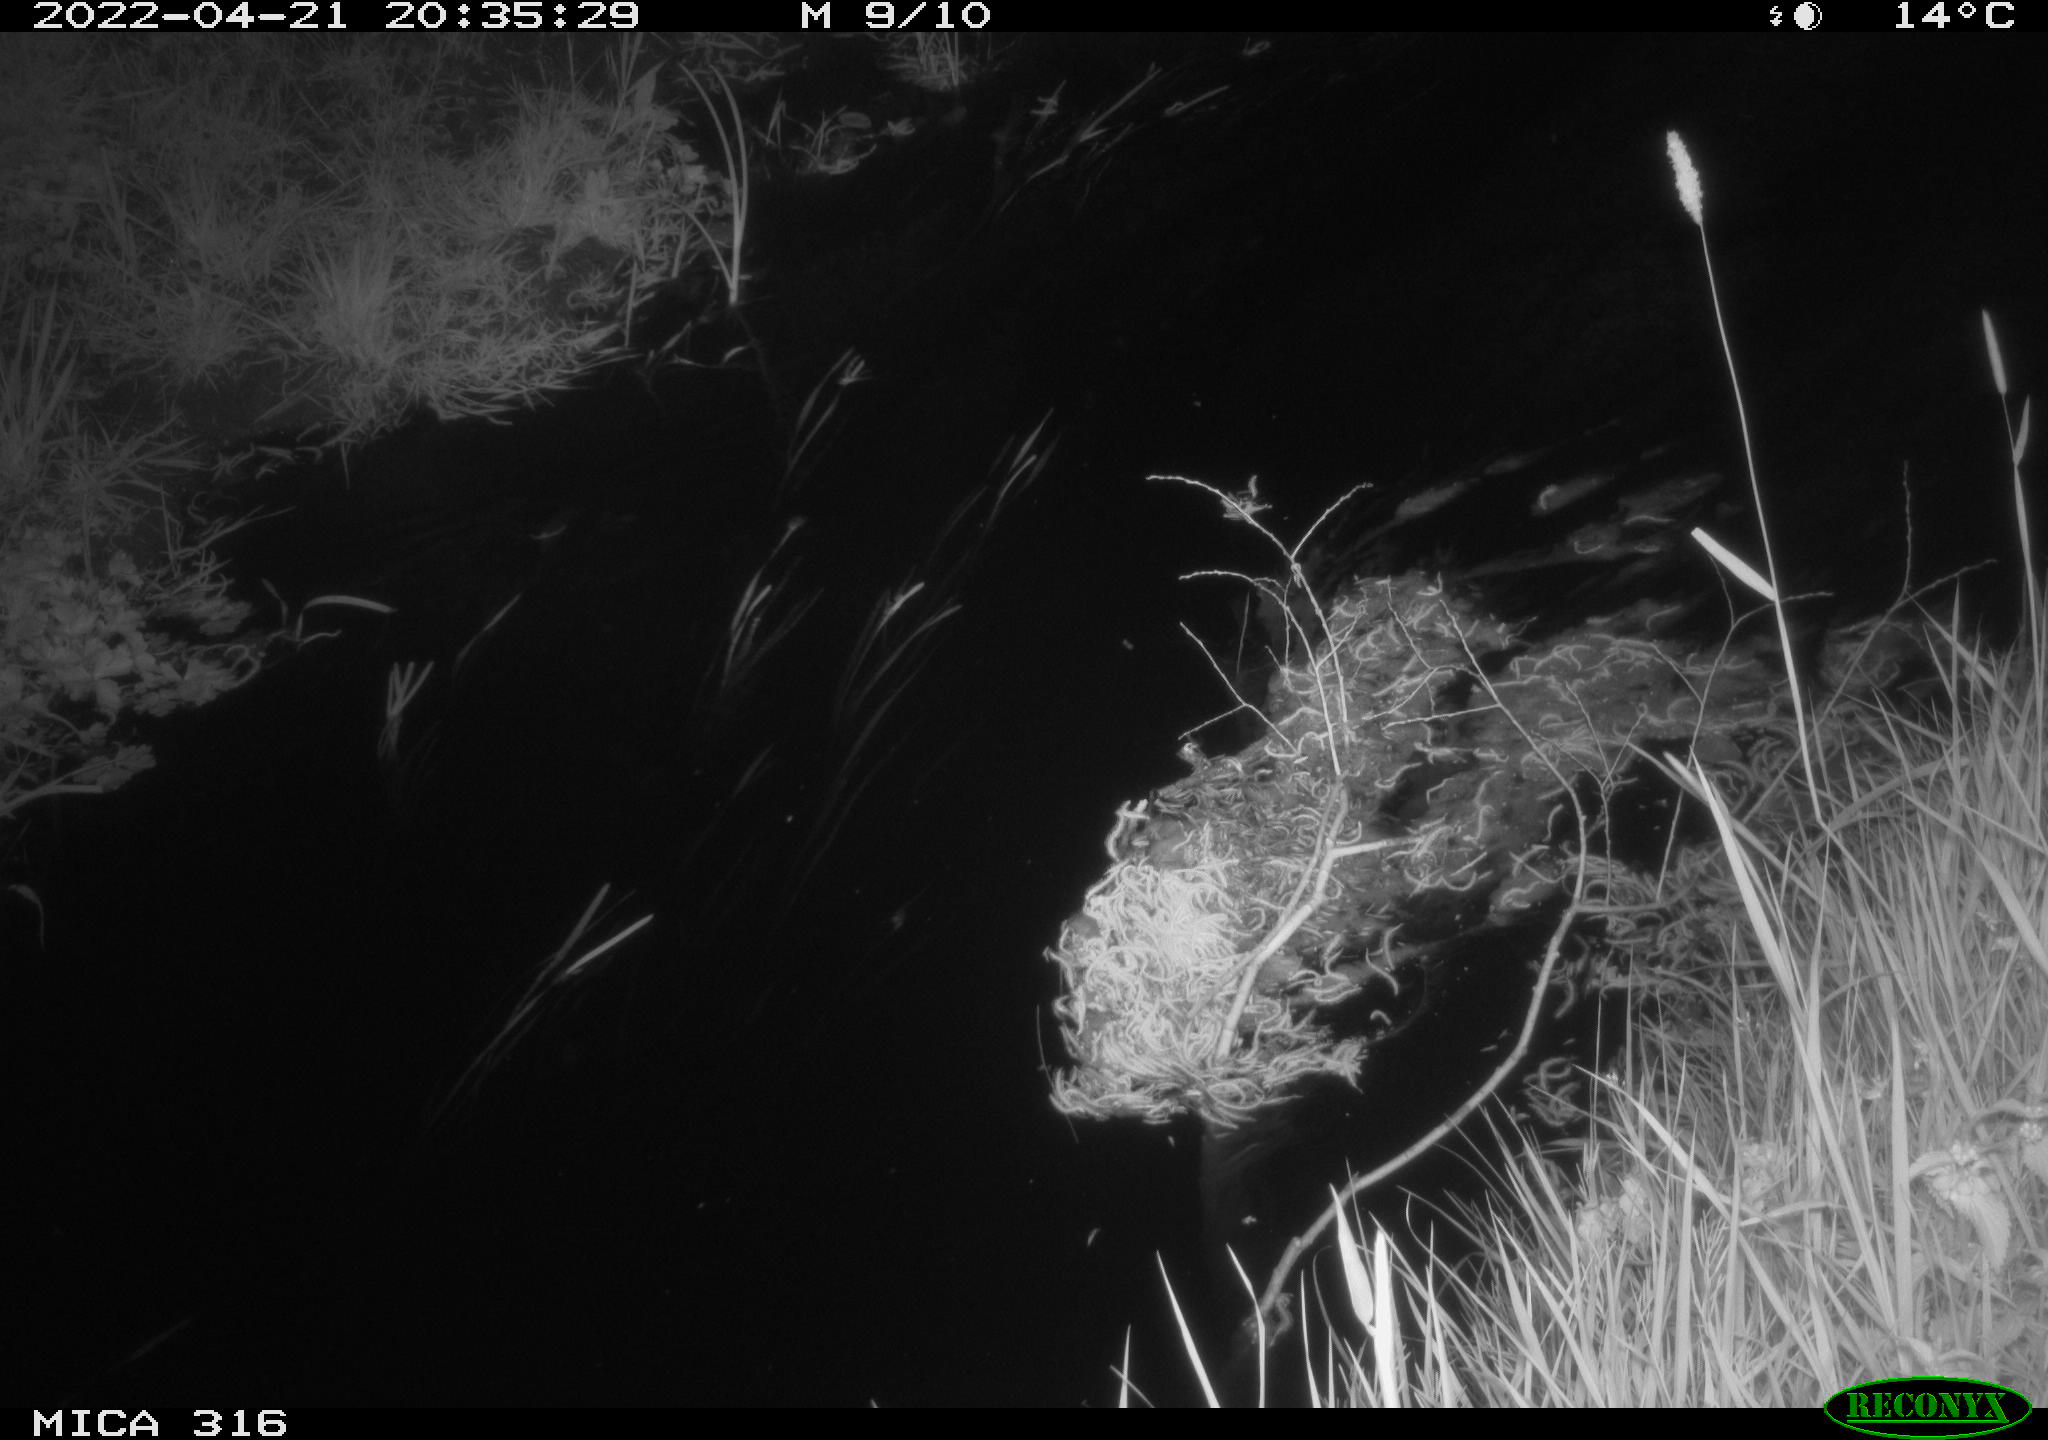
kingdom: Animalia
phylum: Chordata
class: Aves
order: Anseriformes
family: Anatidae
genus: Anas
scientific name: Anas platyrhynchos
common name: Mallard
